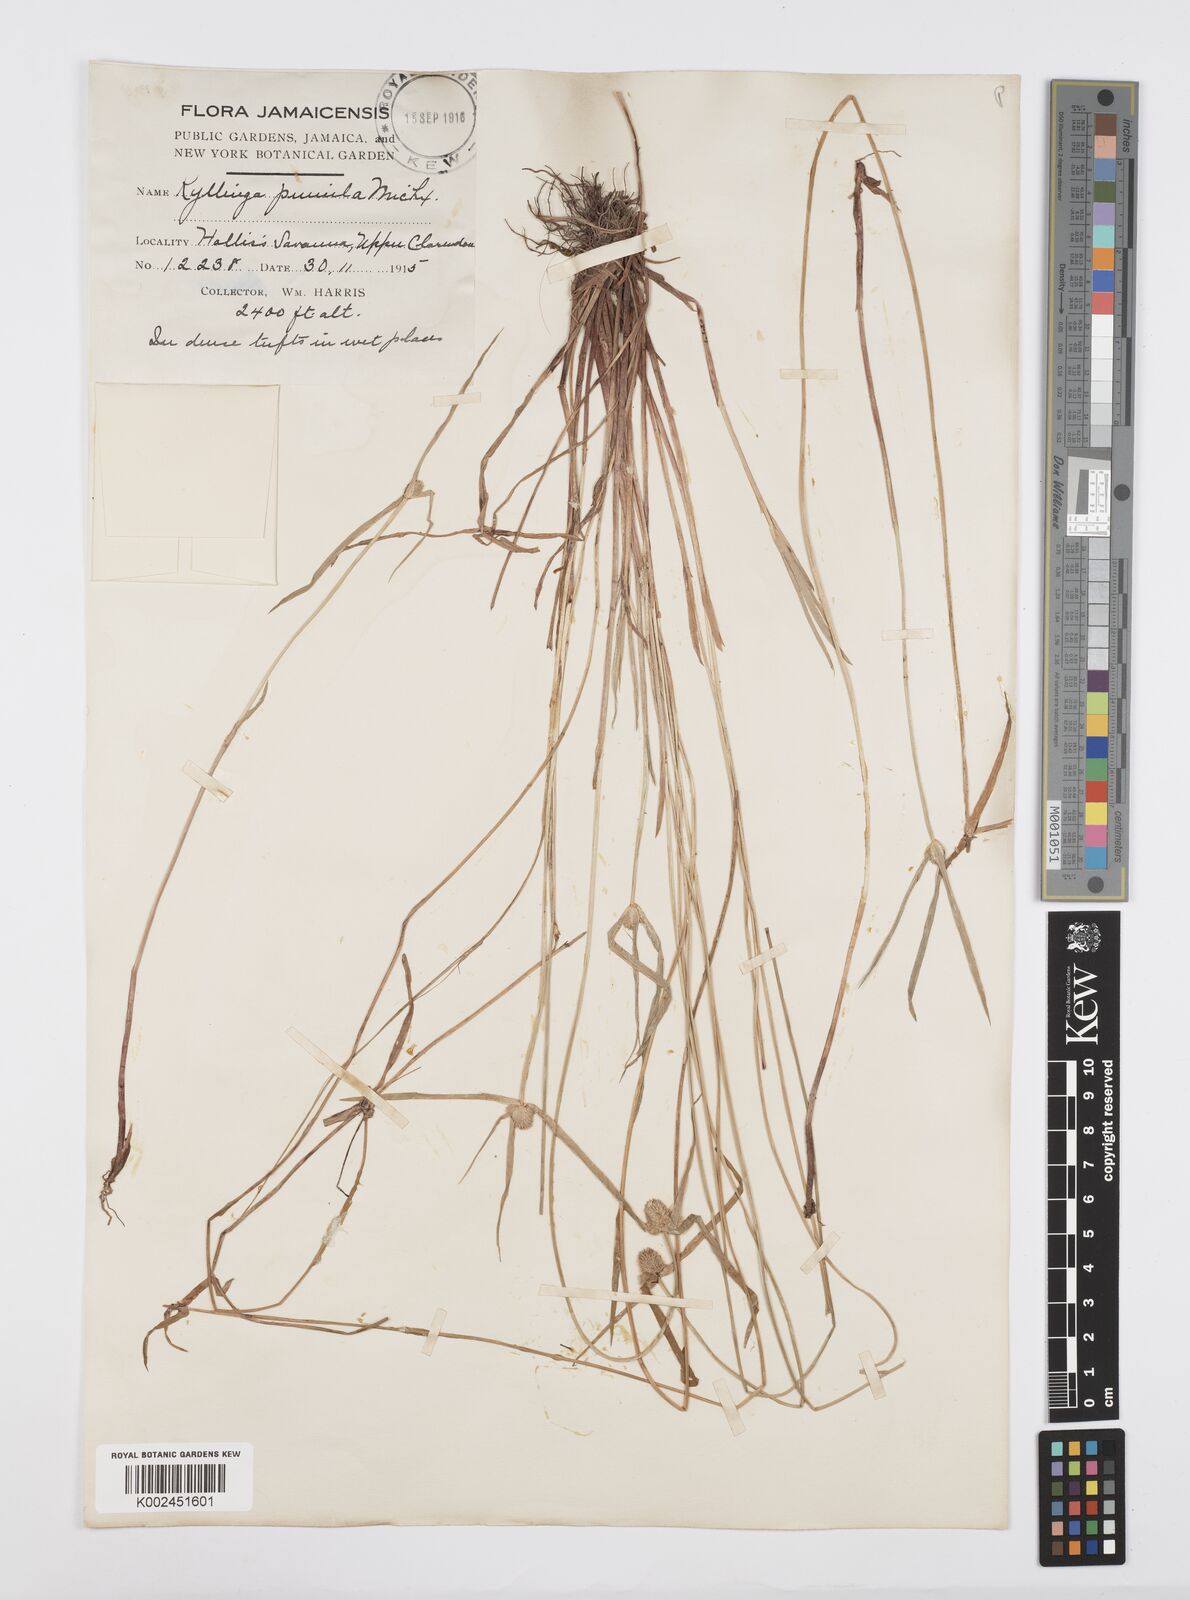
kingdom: Plantae
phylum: Tracheophyta
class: Liliopsida
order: Poales
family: Cyperaceae
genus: Cyperus
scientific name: Cyperus
